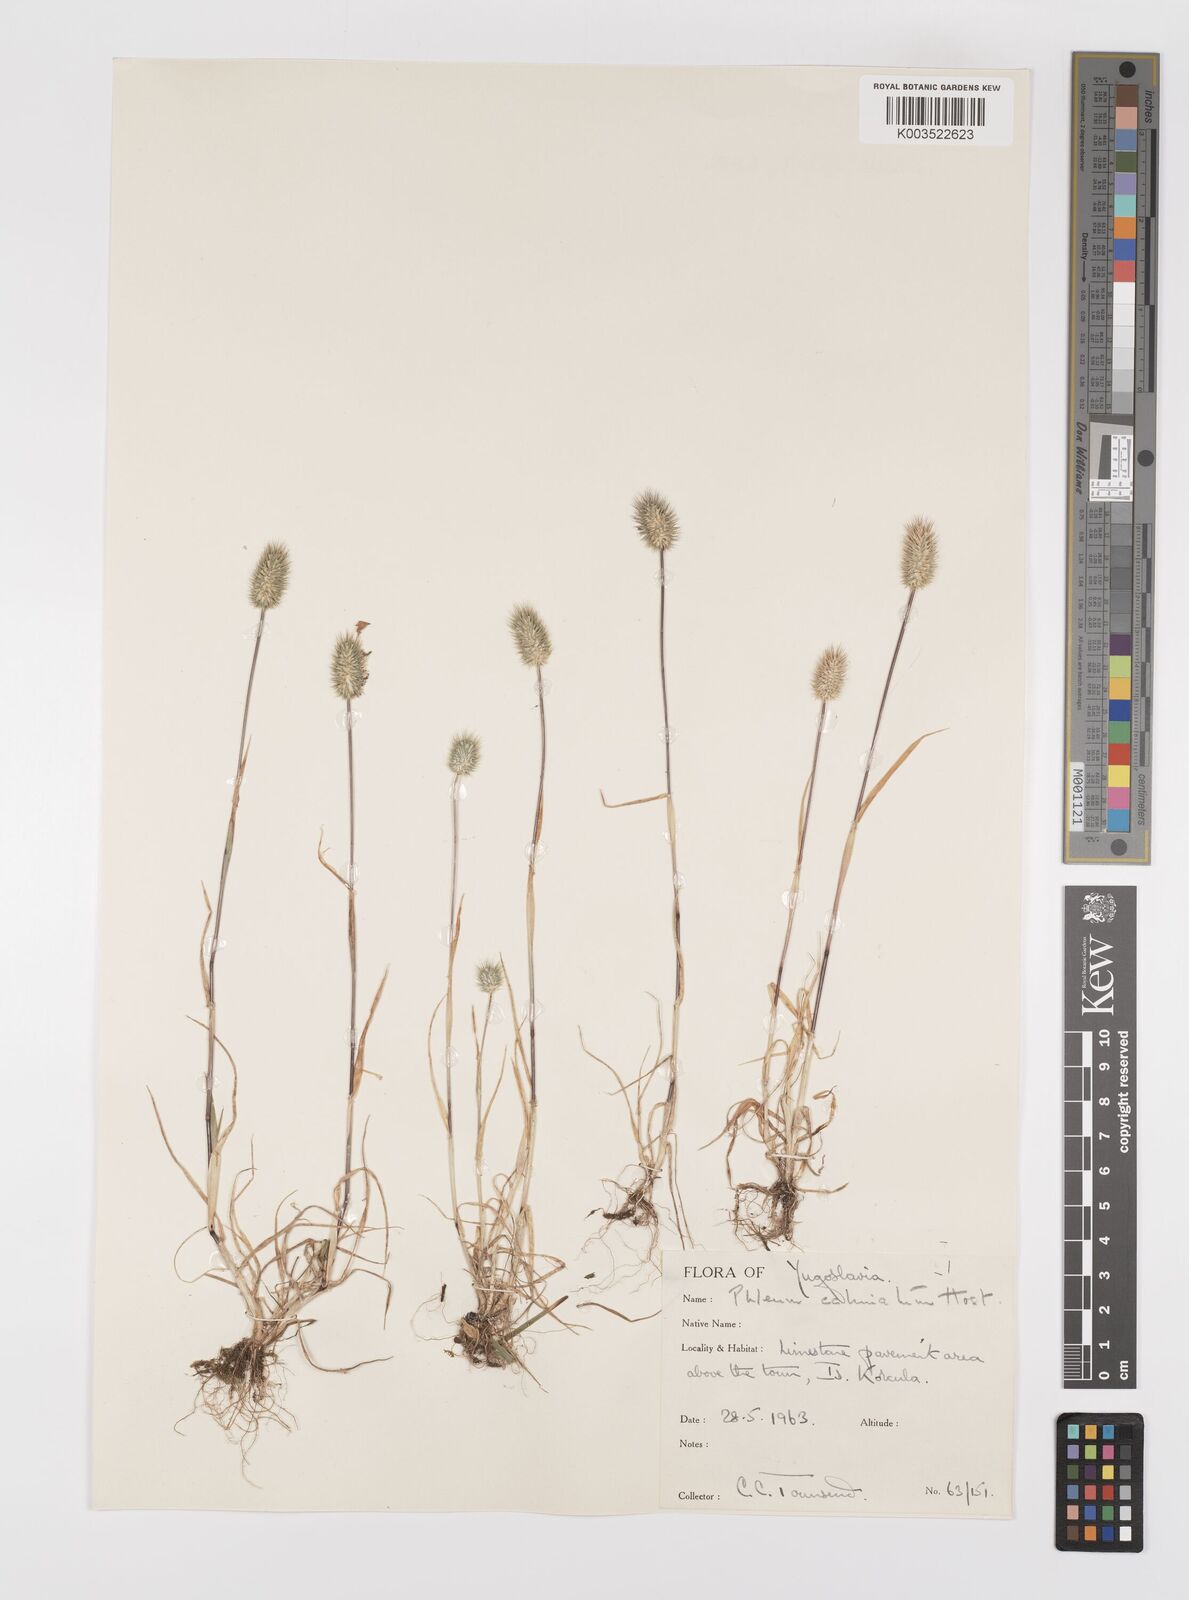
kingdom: Plantae
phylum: Tracheophyta
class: Liliopsida
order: Poales
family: Poaceae
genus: Phleum
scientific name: Phleum echinatum
